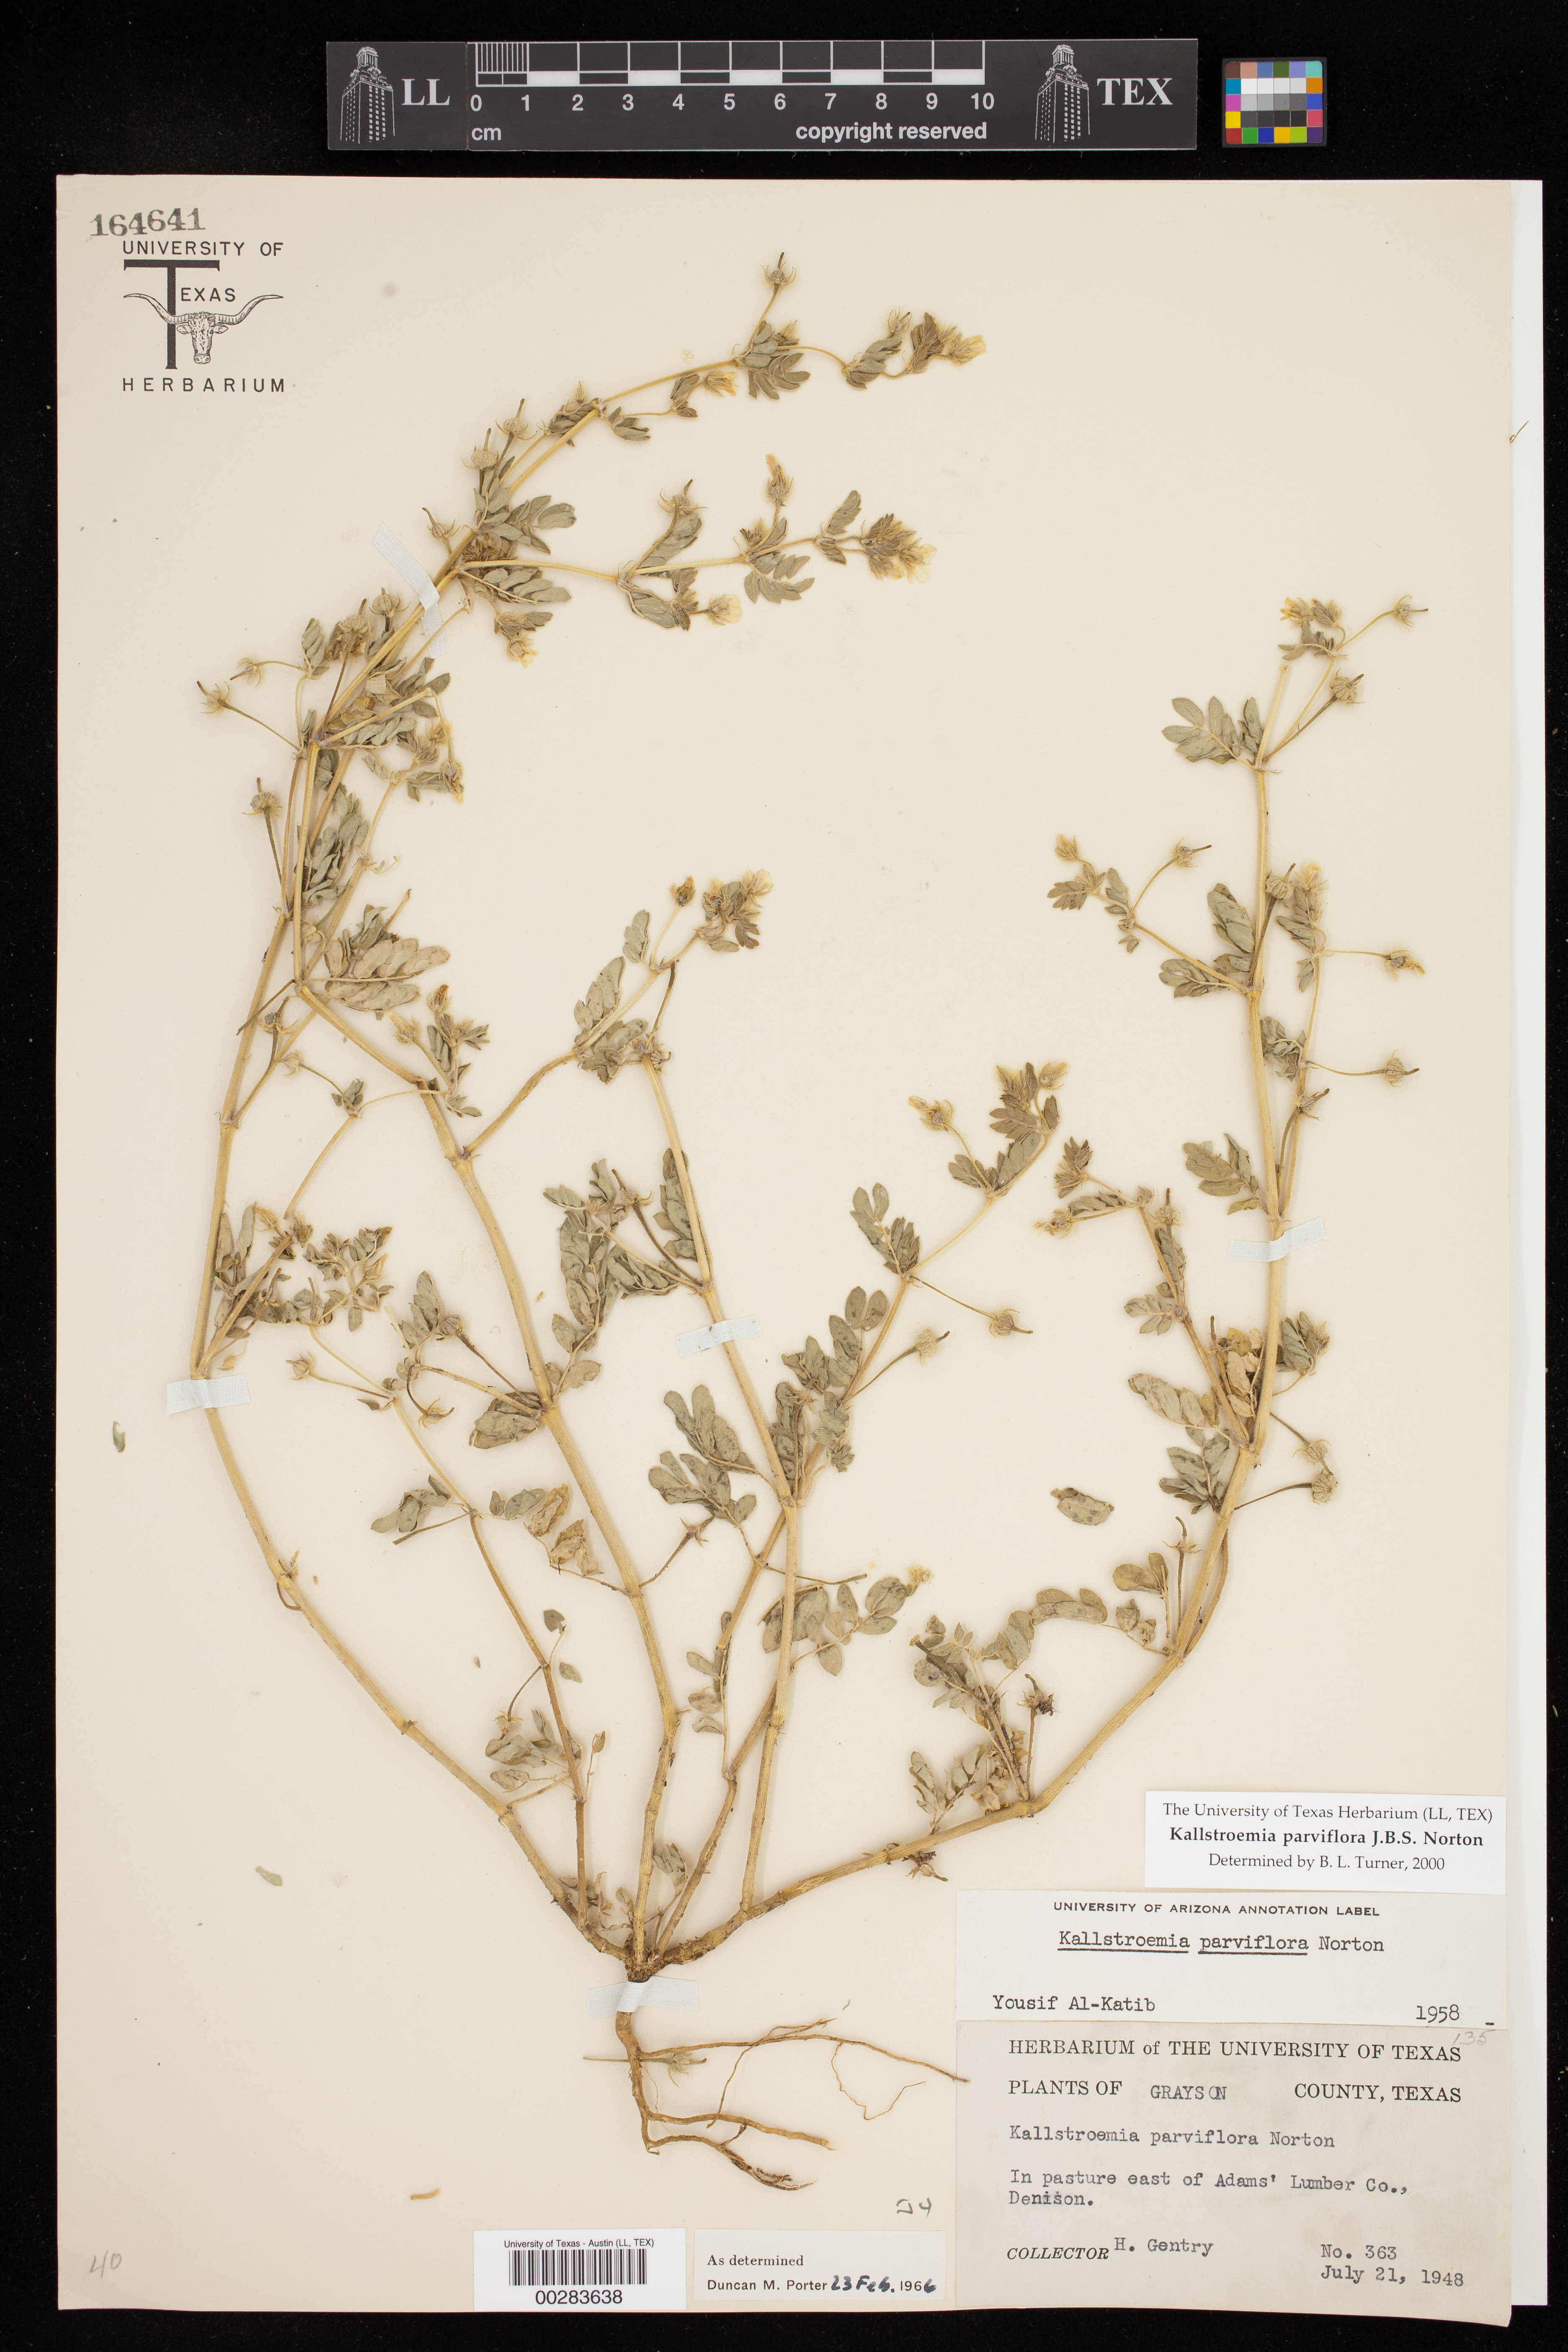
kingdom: Plantae
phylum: Tracheophyta
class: Magnoliopsida
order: Zygophyllales
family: Zygophyllaceae
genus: Kallstroemia
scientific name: Kallstroemia parviflora
